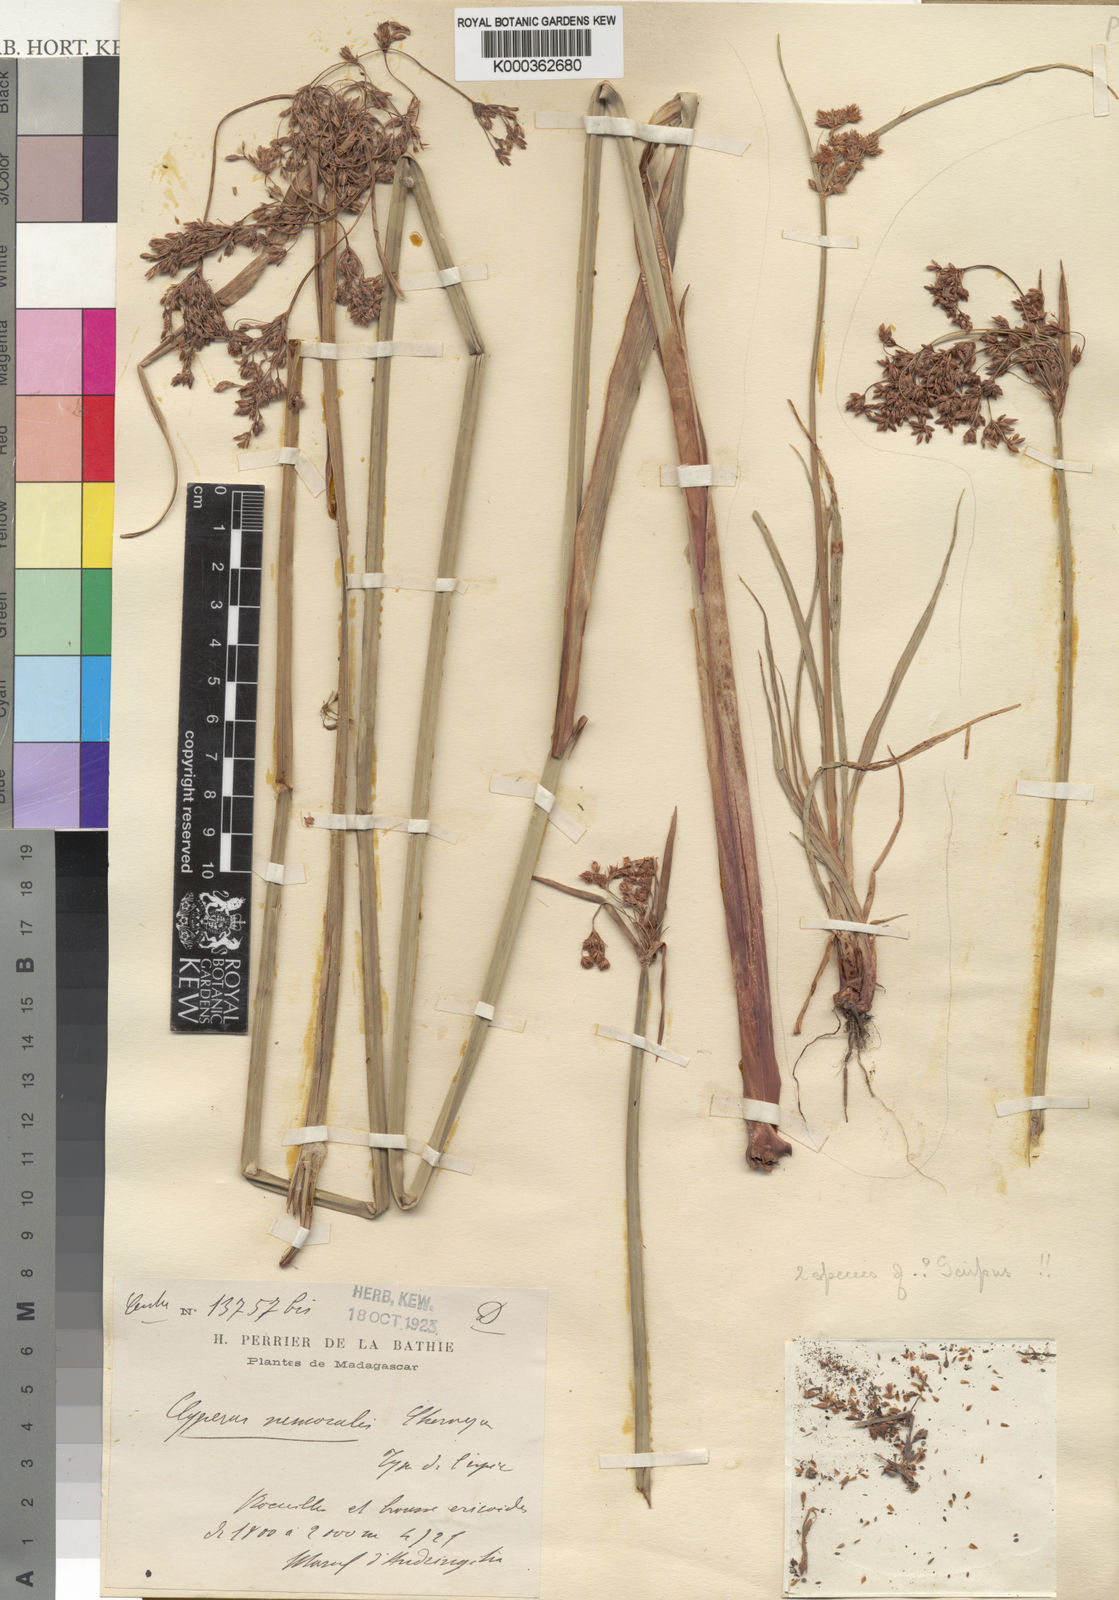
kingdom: Plantae
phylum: Tracheophyta
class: Liliopsida
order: Poales
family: Cyperaceae
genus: Cyperus
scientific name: Cyperus nemoralis
